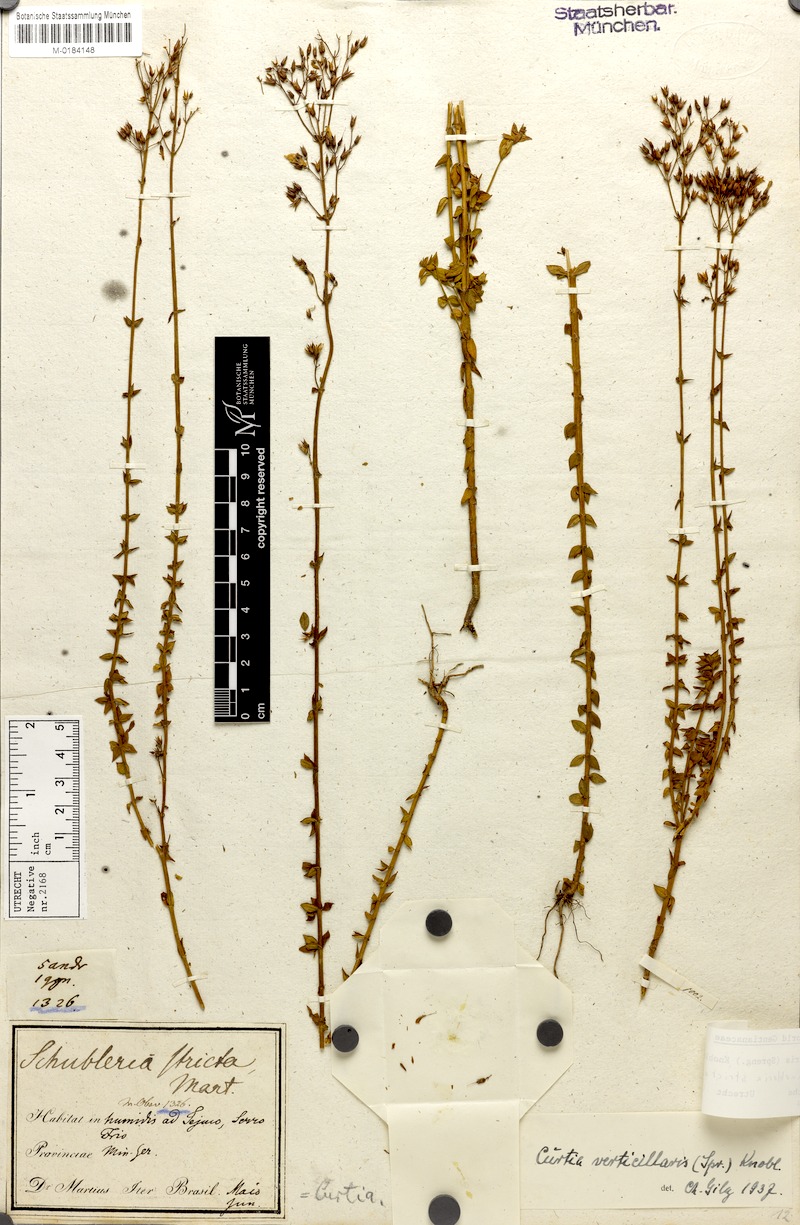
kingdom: Plantae
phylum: Tracheophyta
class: Magnoliopsida
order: Gentianales
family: Gentianaceae
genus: Curtia
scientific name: Curtia verticillaris
